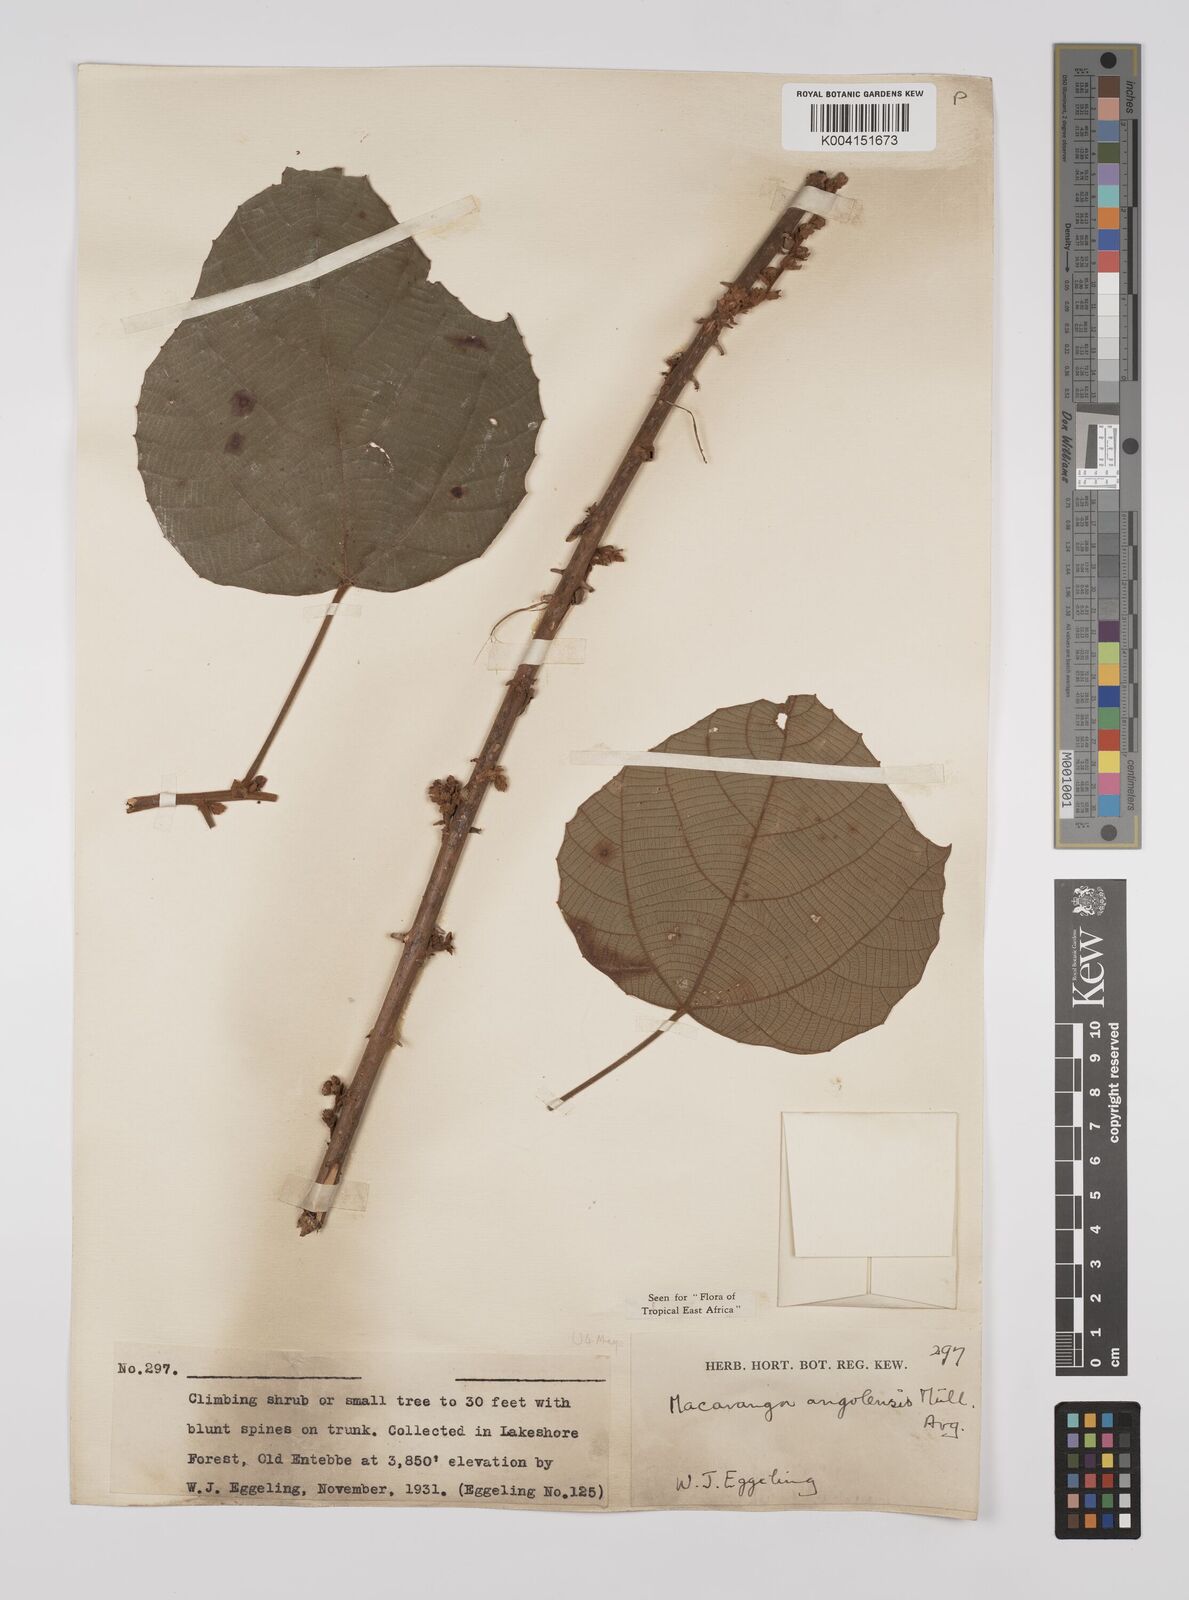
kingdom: Plantae
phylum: Tracheophyta
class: Magnoliopsida
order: Malpighiales
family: Euphorbiaceae
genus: Macaranga
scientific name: Macaranga angolensis
